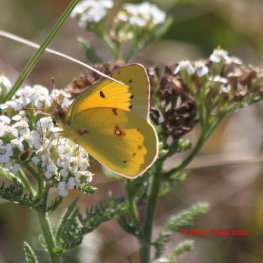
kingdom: Animalia
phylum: Arthropoda
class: Insecta
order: Lepidoptera
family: Pieridae
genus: Colias
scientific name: Colias eurytheme
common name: Orange Sulphur
